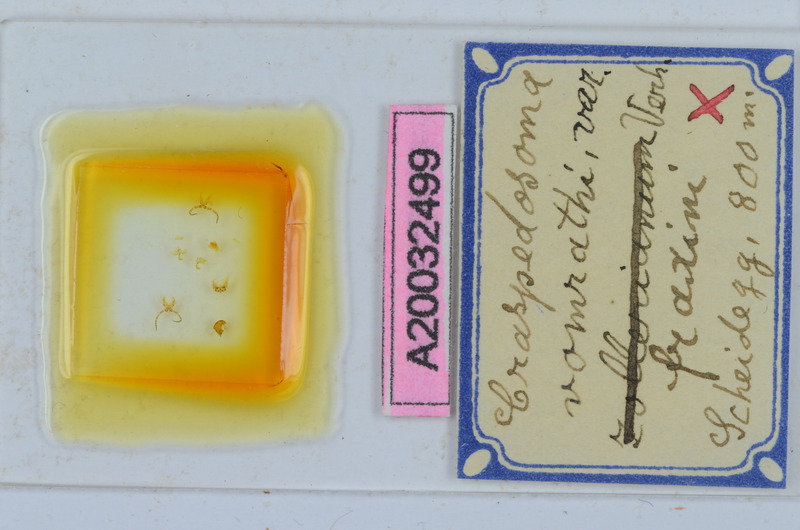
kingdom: Animalia
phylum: Arthropoda
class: Diplopoda
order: Chordeumatida
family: Craspedosomatidae
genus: Craspedosoma
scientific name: Craspedosoma rawlinsii
